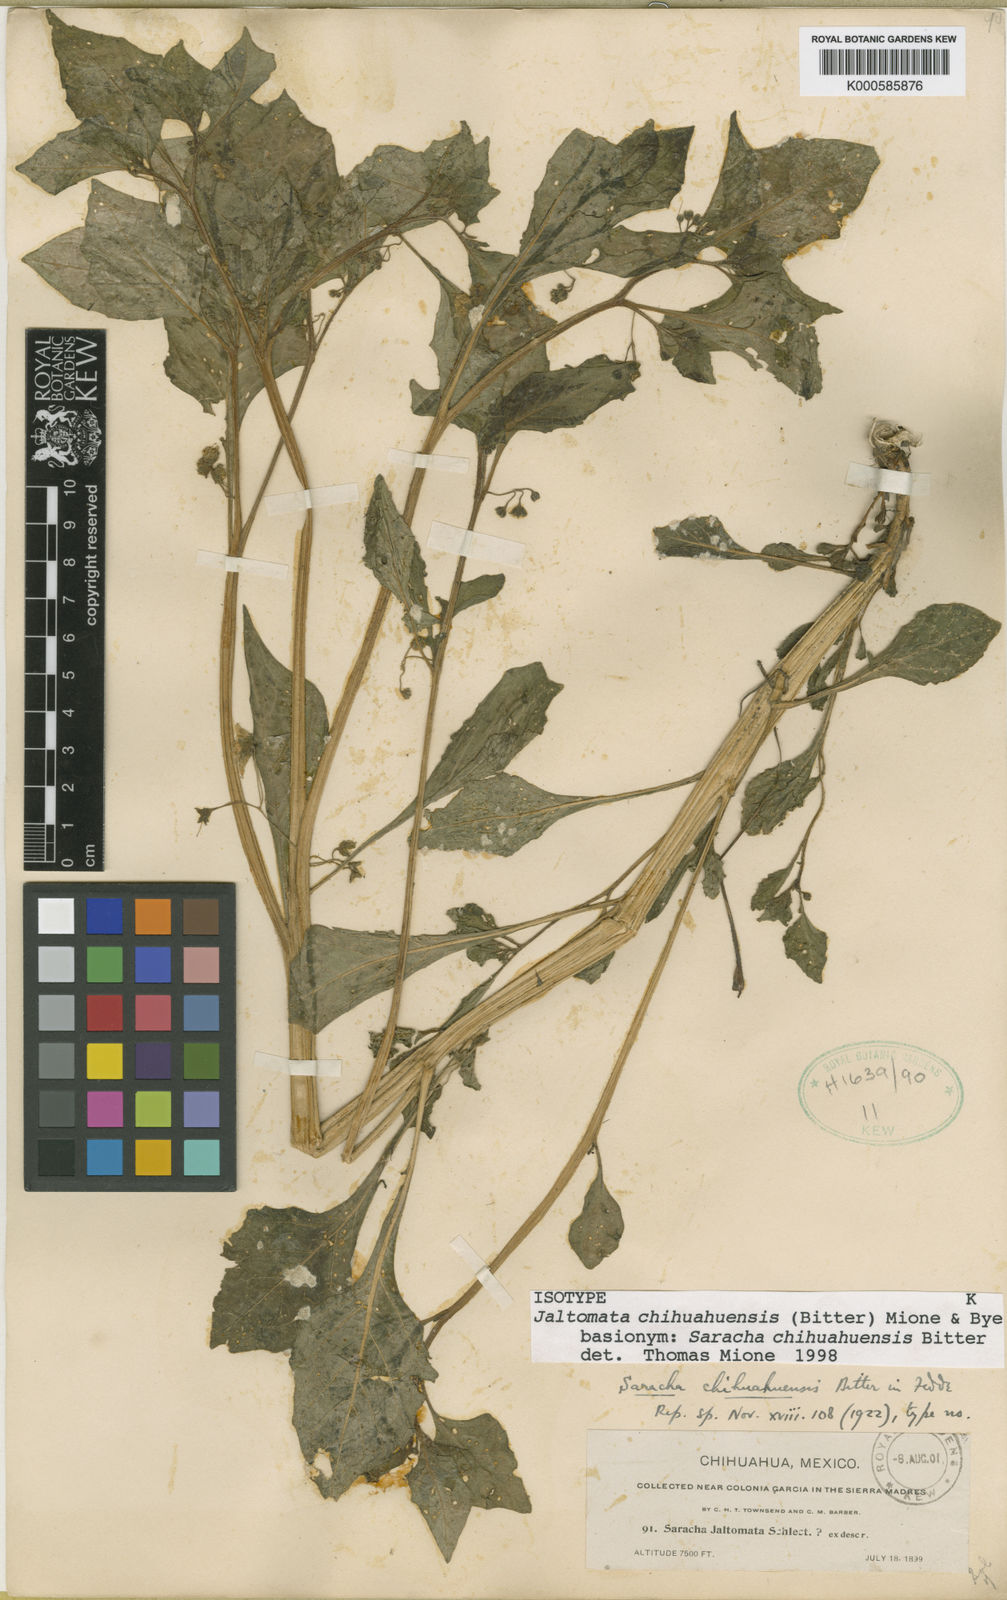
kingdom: Plantae
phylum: Tracheophyta
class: Magnoliopsida
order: Solanales
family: Solanaceae
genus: Jaltomata
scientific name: Jaltomata chihuahuensis
